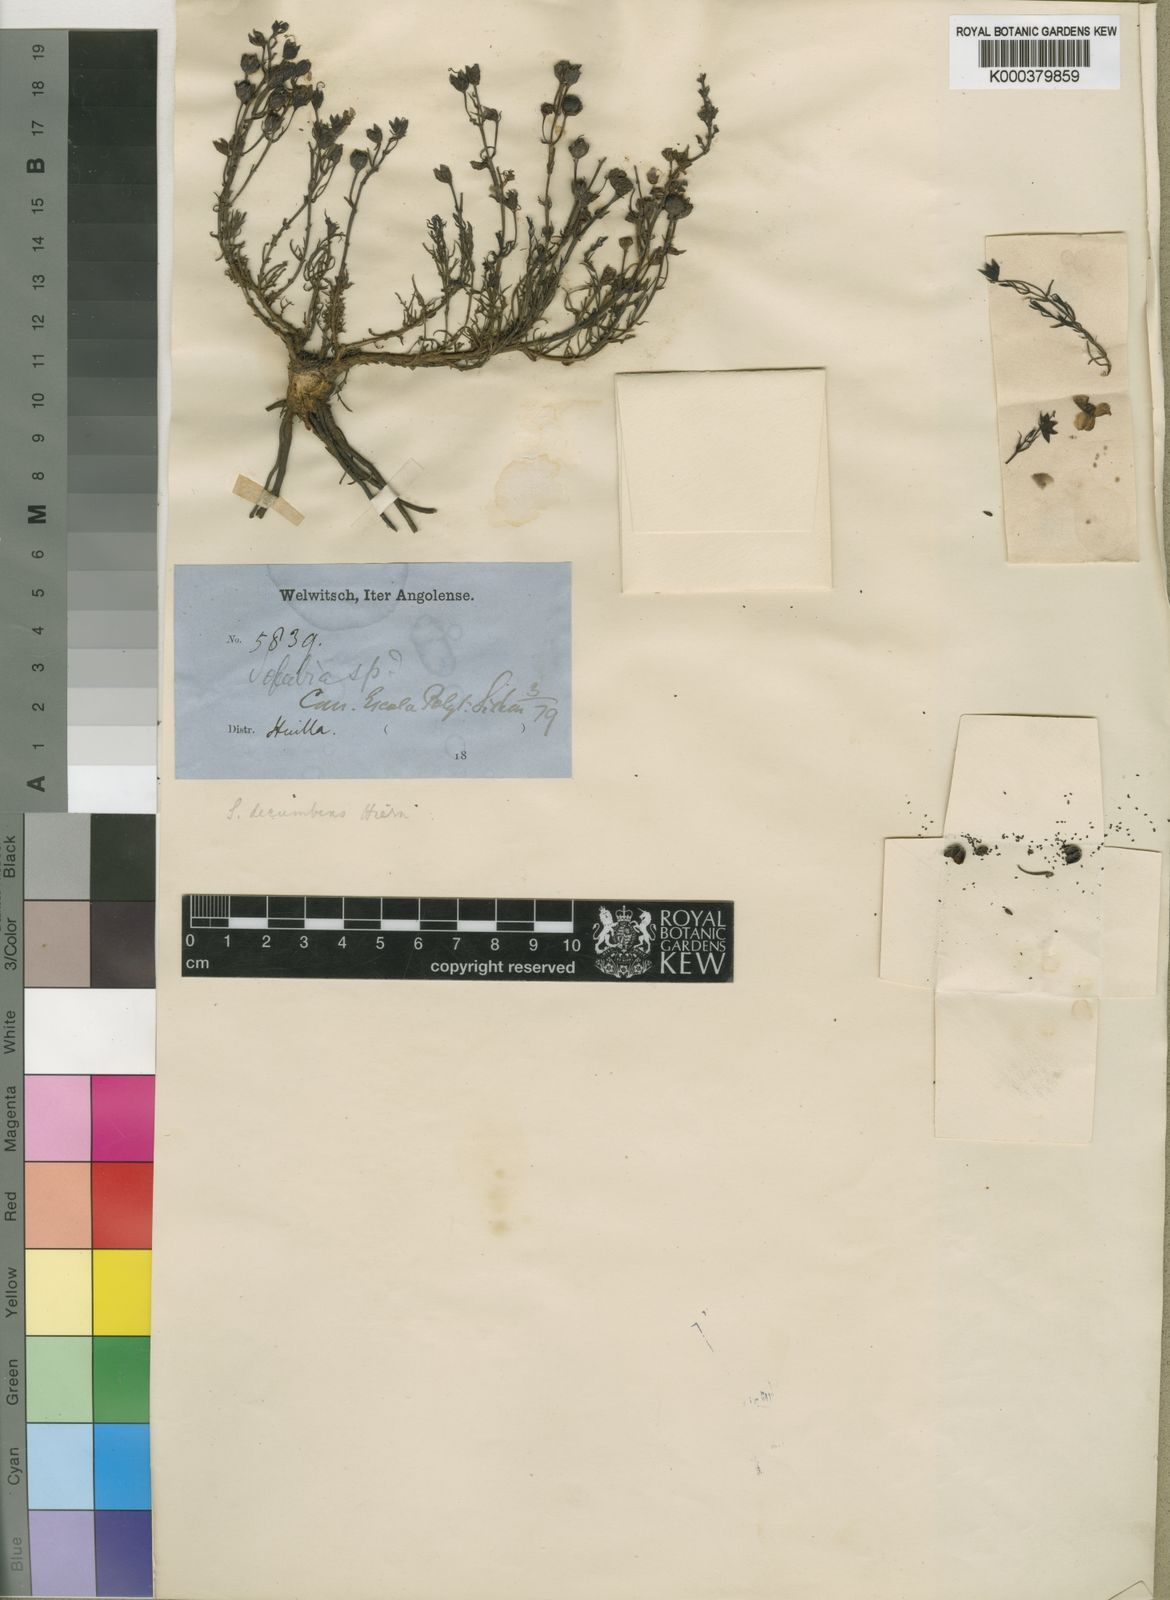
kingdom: Plantae
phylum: Tracheophyta
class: Magnoliopsida
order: Lamiales
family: Orobanchaceae
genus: Sopubia
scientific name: Sopubia trifida
